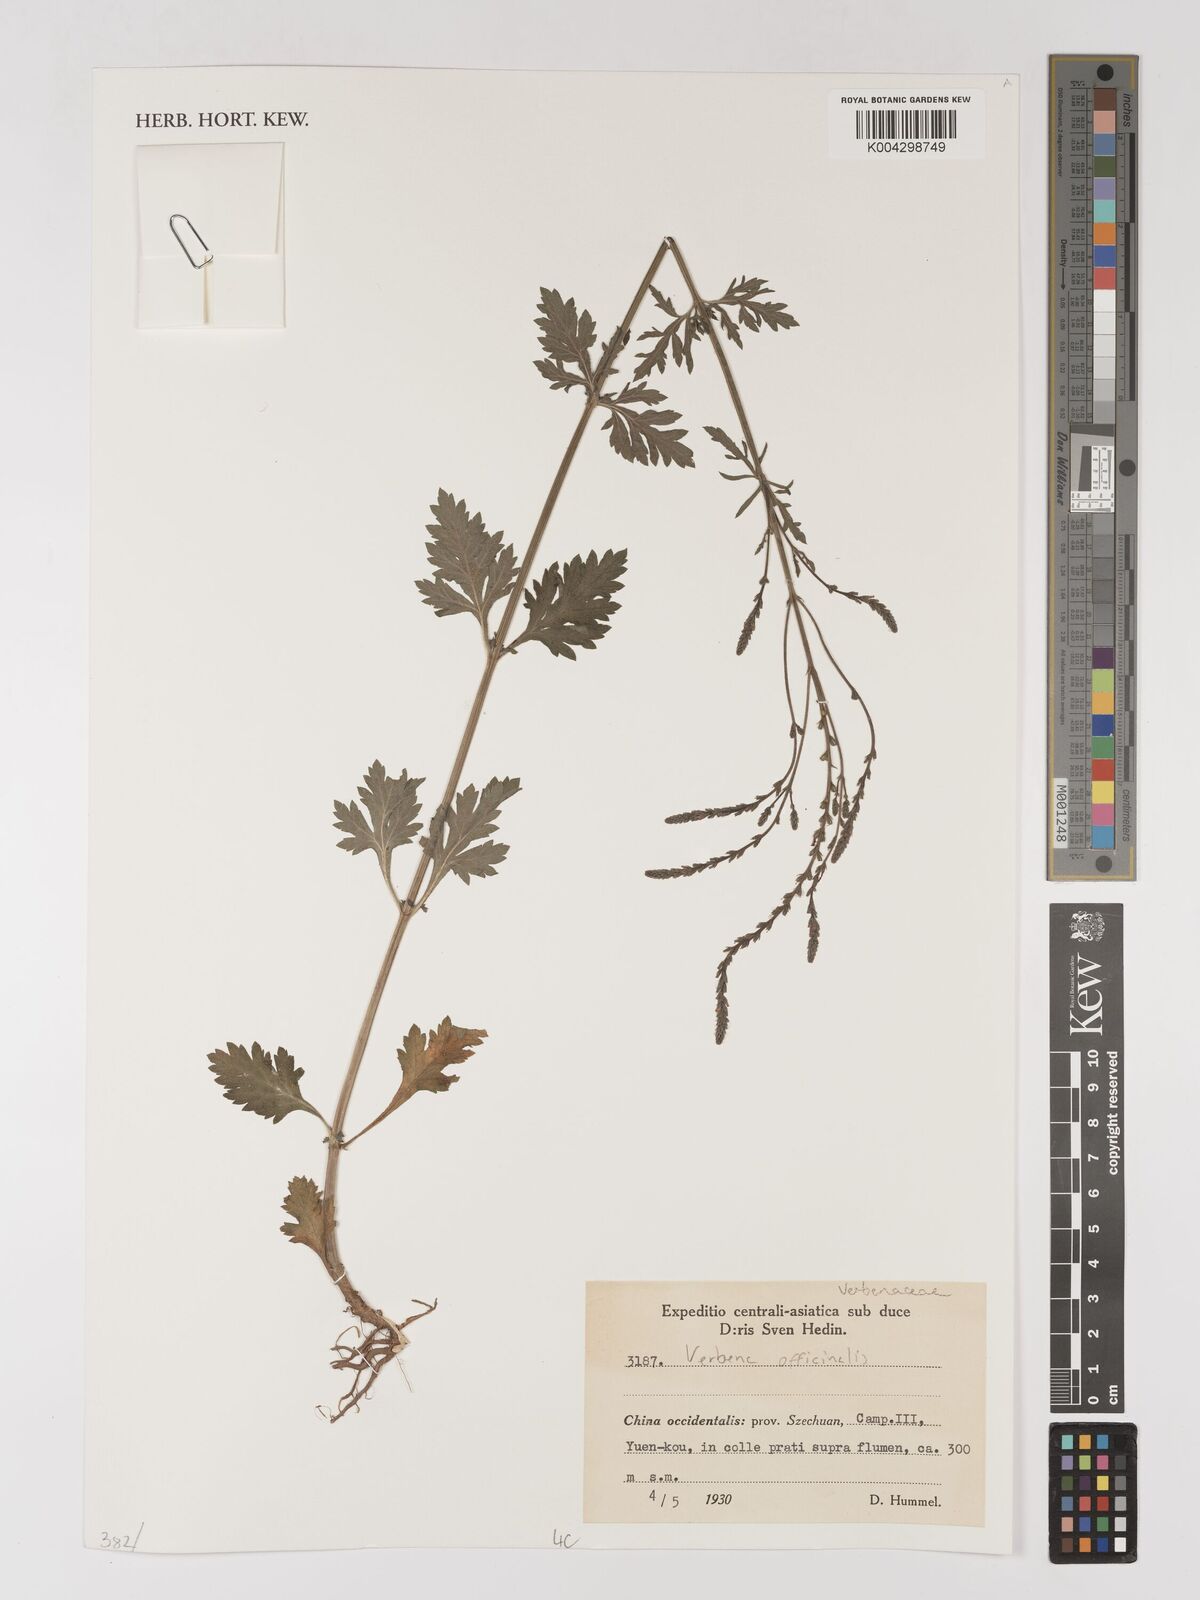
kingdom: Plantae
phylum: Tracheophyta
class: Magnoliopsida
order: Lamiales
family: Verbenaceae
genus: Verbena
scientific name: Verbena officinalis
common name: Vervain
